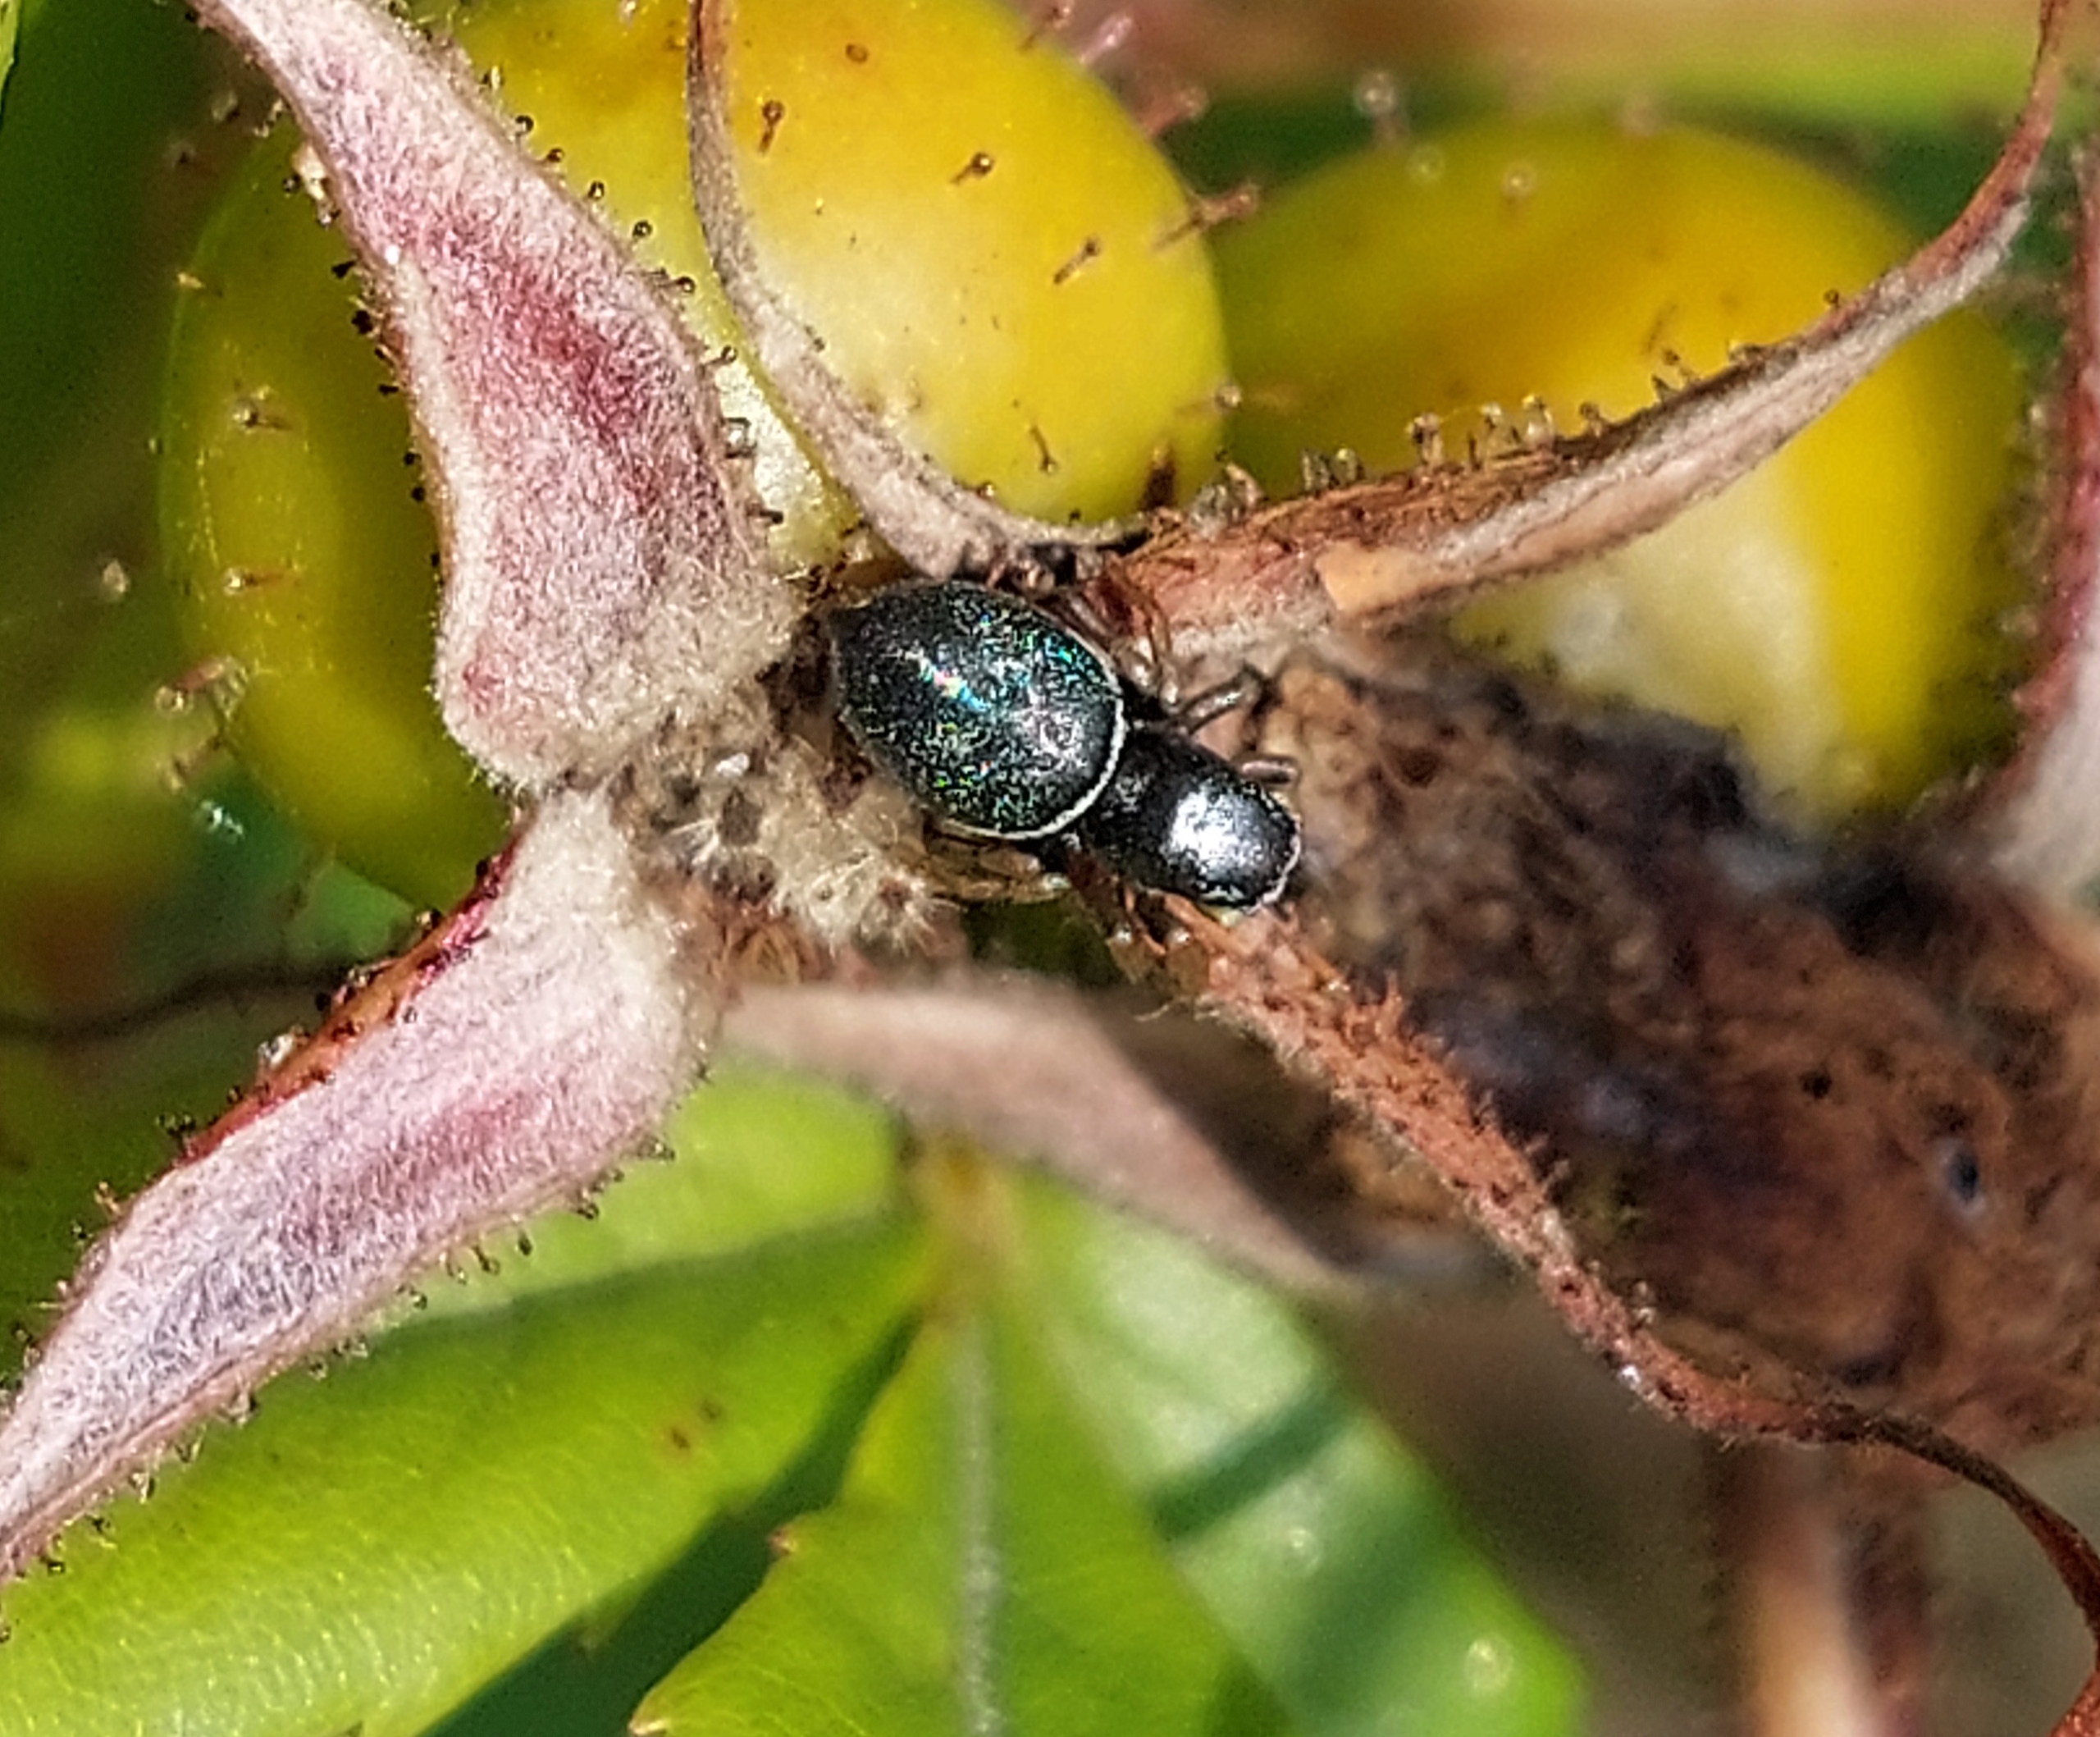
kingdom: Animalia
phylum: Arthropoda
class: Arachnida
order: Araneae
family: Salticidae
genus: Heliophanus
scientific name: Heliophanus
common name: Sortspringerslægten
